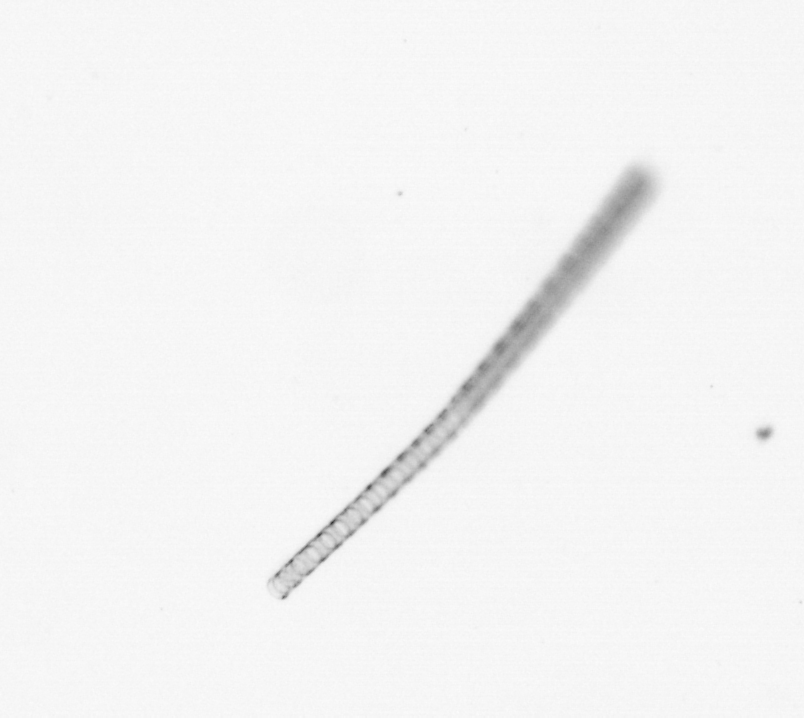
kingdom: Chromista
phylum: Ochrophyta
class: Bacillariophyceae
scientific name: Bacillariophyceae
